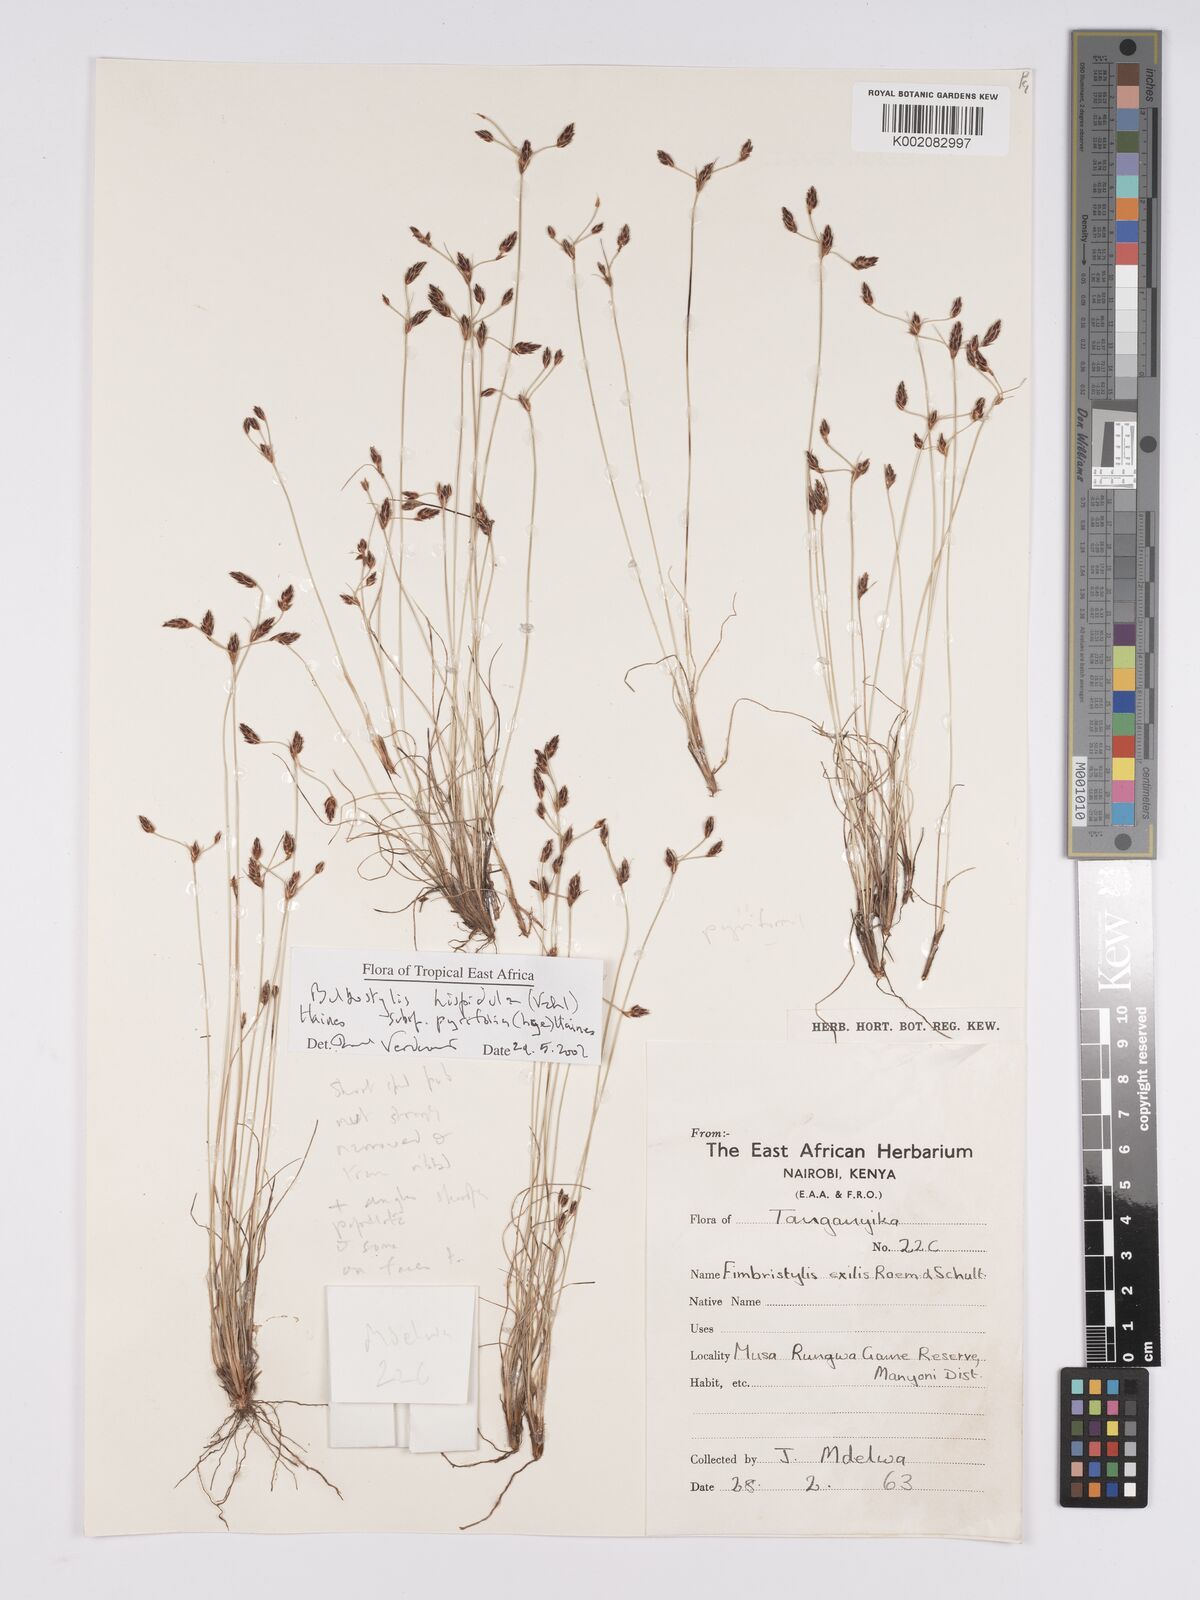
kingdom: Plantae
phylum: Tracheophyta
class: Liliopsida
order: Poales
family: Cyperaceae
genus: Bulbostylis
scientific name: Bulbostylis hispidula
